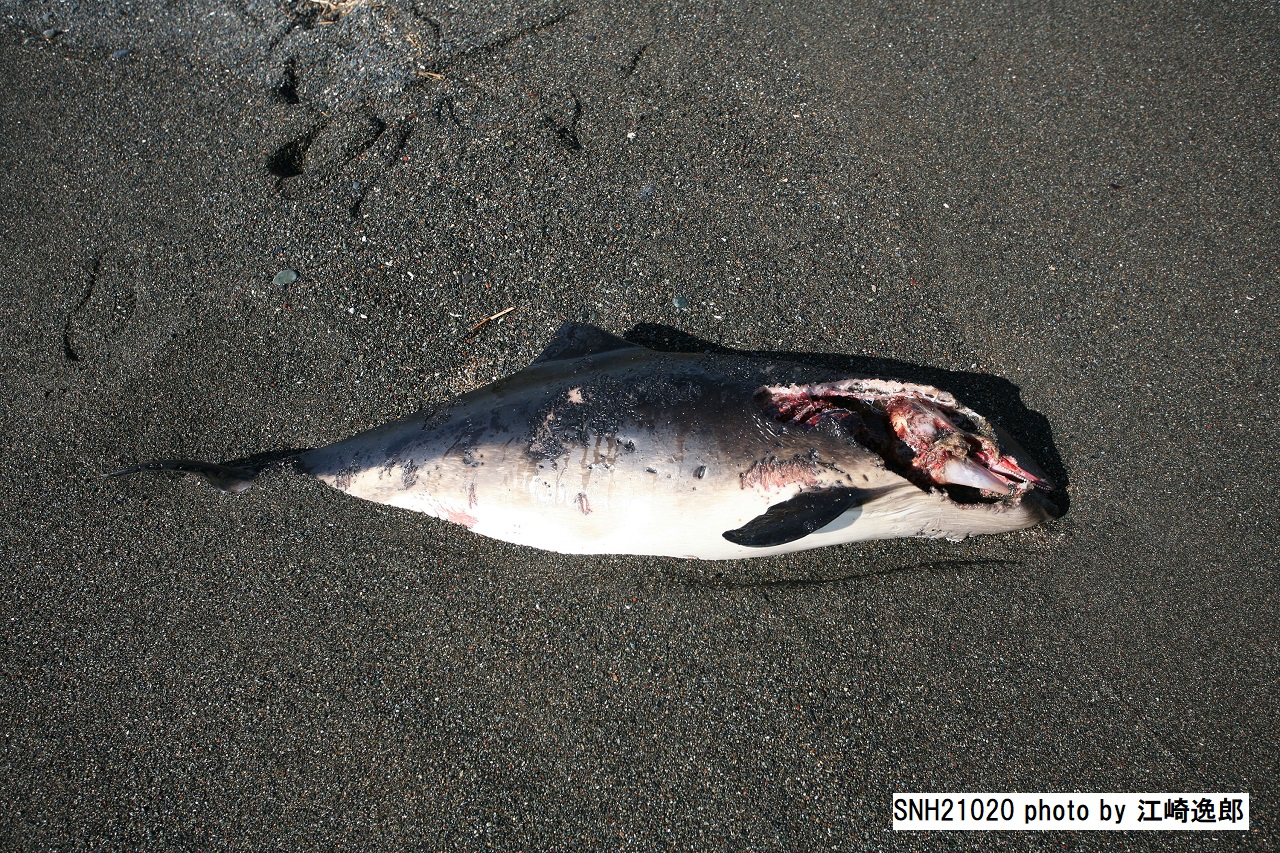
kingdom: Animalia
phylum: Chordata
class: Mammalia
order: Cetacea
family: Phocoenidae
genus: Phocoena
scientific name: Phocoena phocoena
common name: Harbour porpoise
